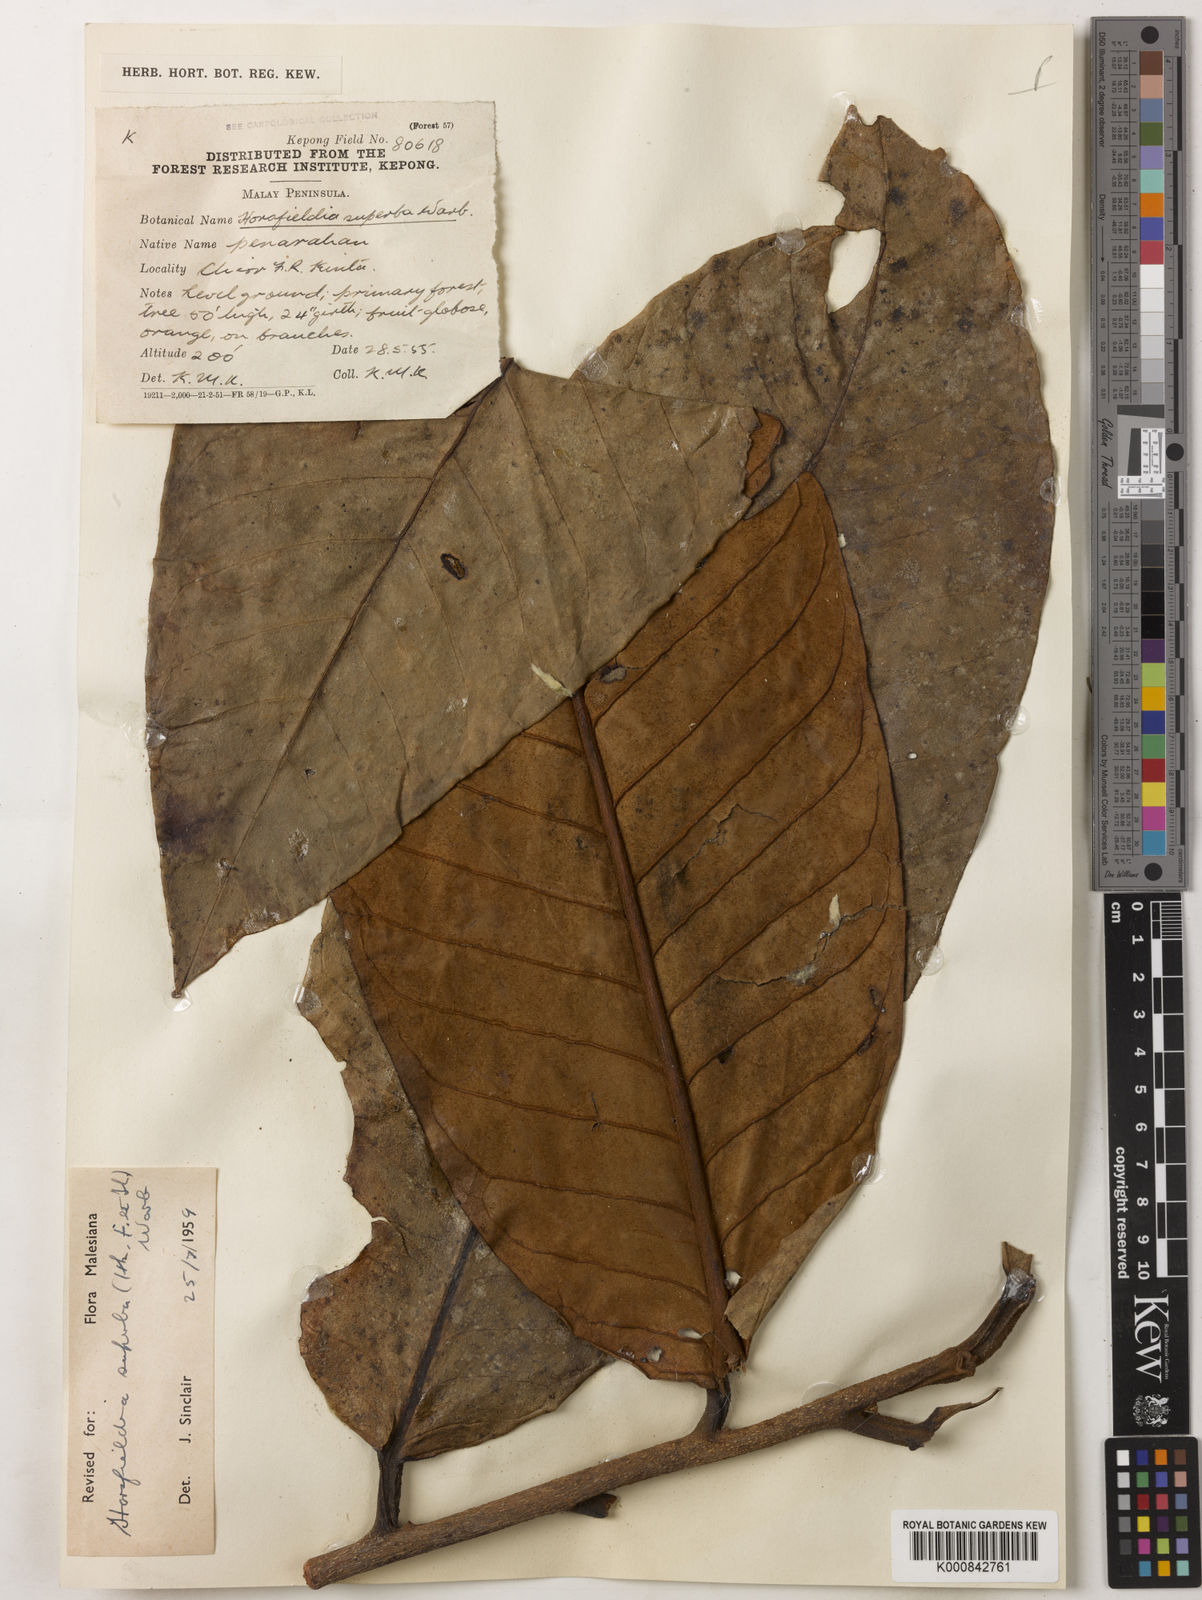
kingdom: Plantae
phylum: Tracheophyta
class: Magnoliopsida
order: Magnoliales
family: Myristicaceae
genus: Horsfieldia
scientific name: Horsfieldia superba
